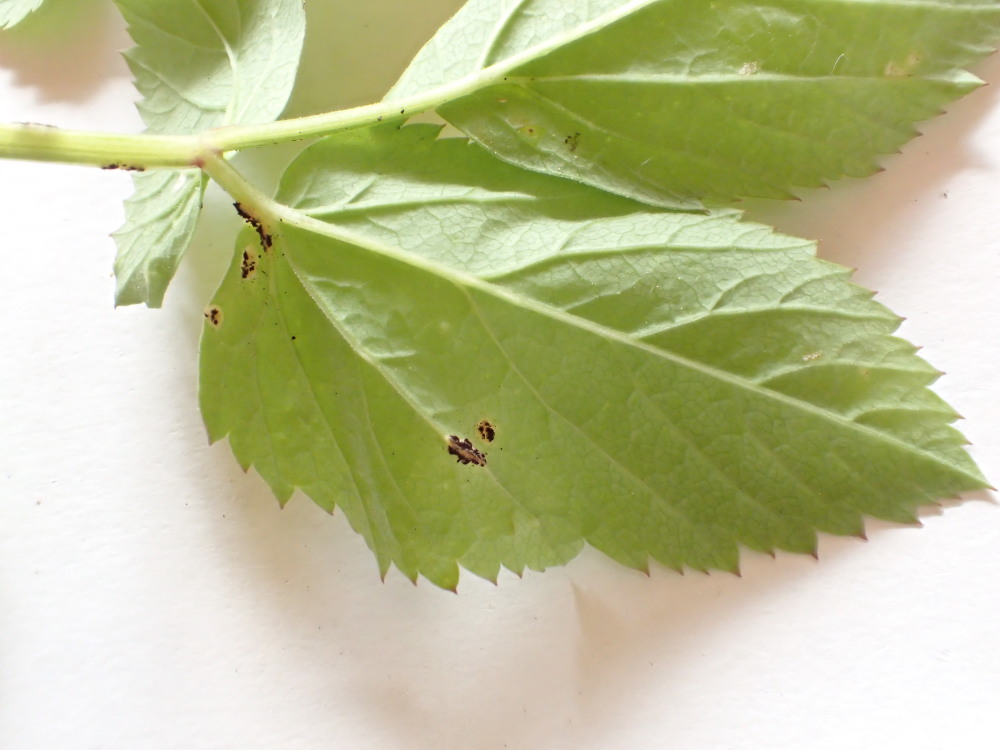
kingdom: Fungi
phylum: Basidiomycota
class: Pucciniomycetes
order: Pucciniales
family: Pucciniaceae
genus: Puccinia
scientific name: Puccinia
